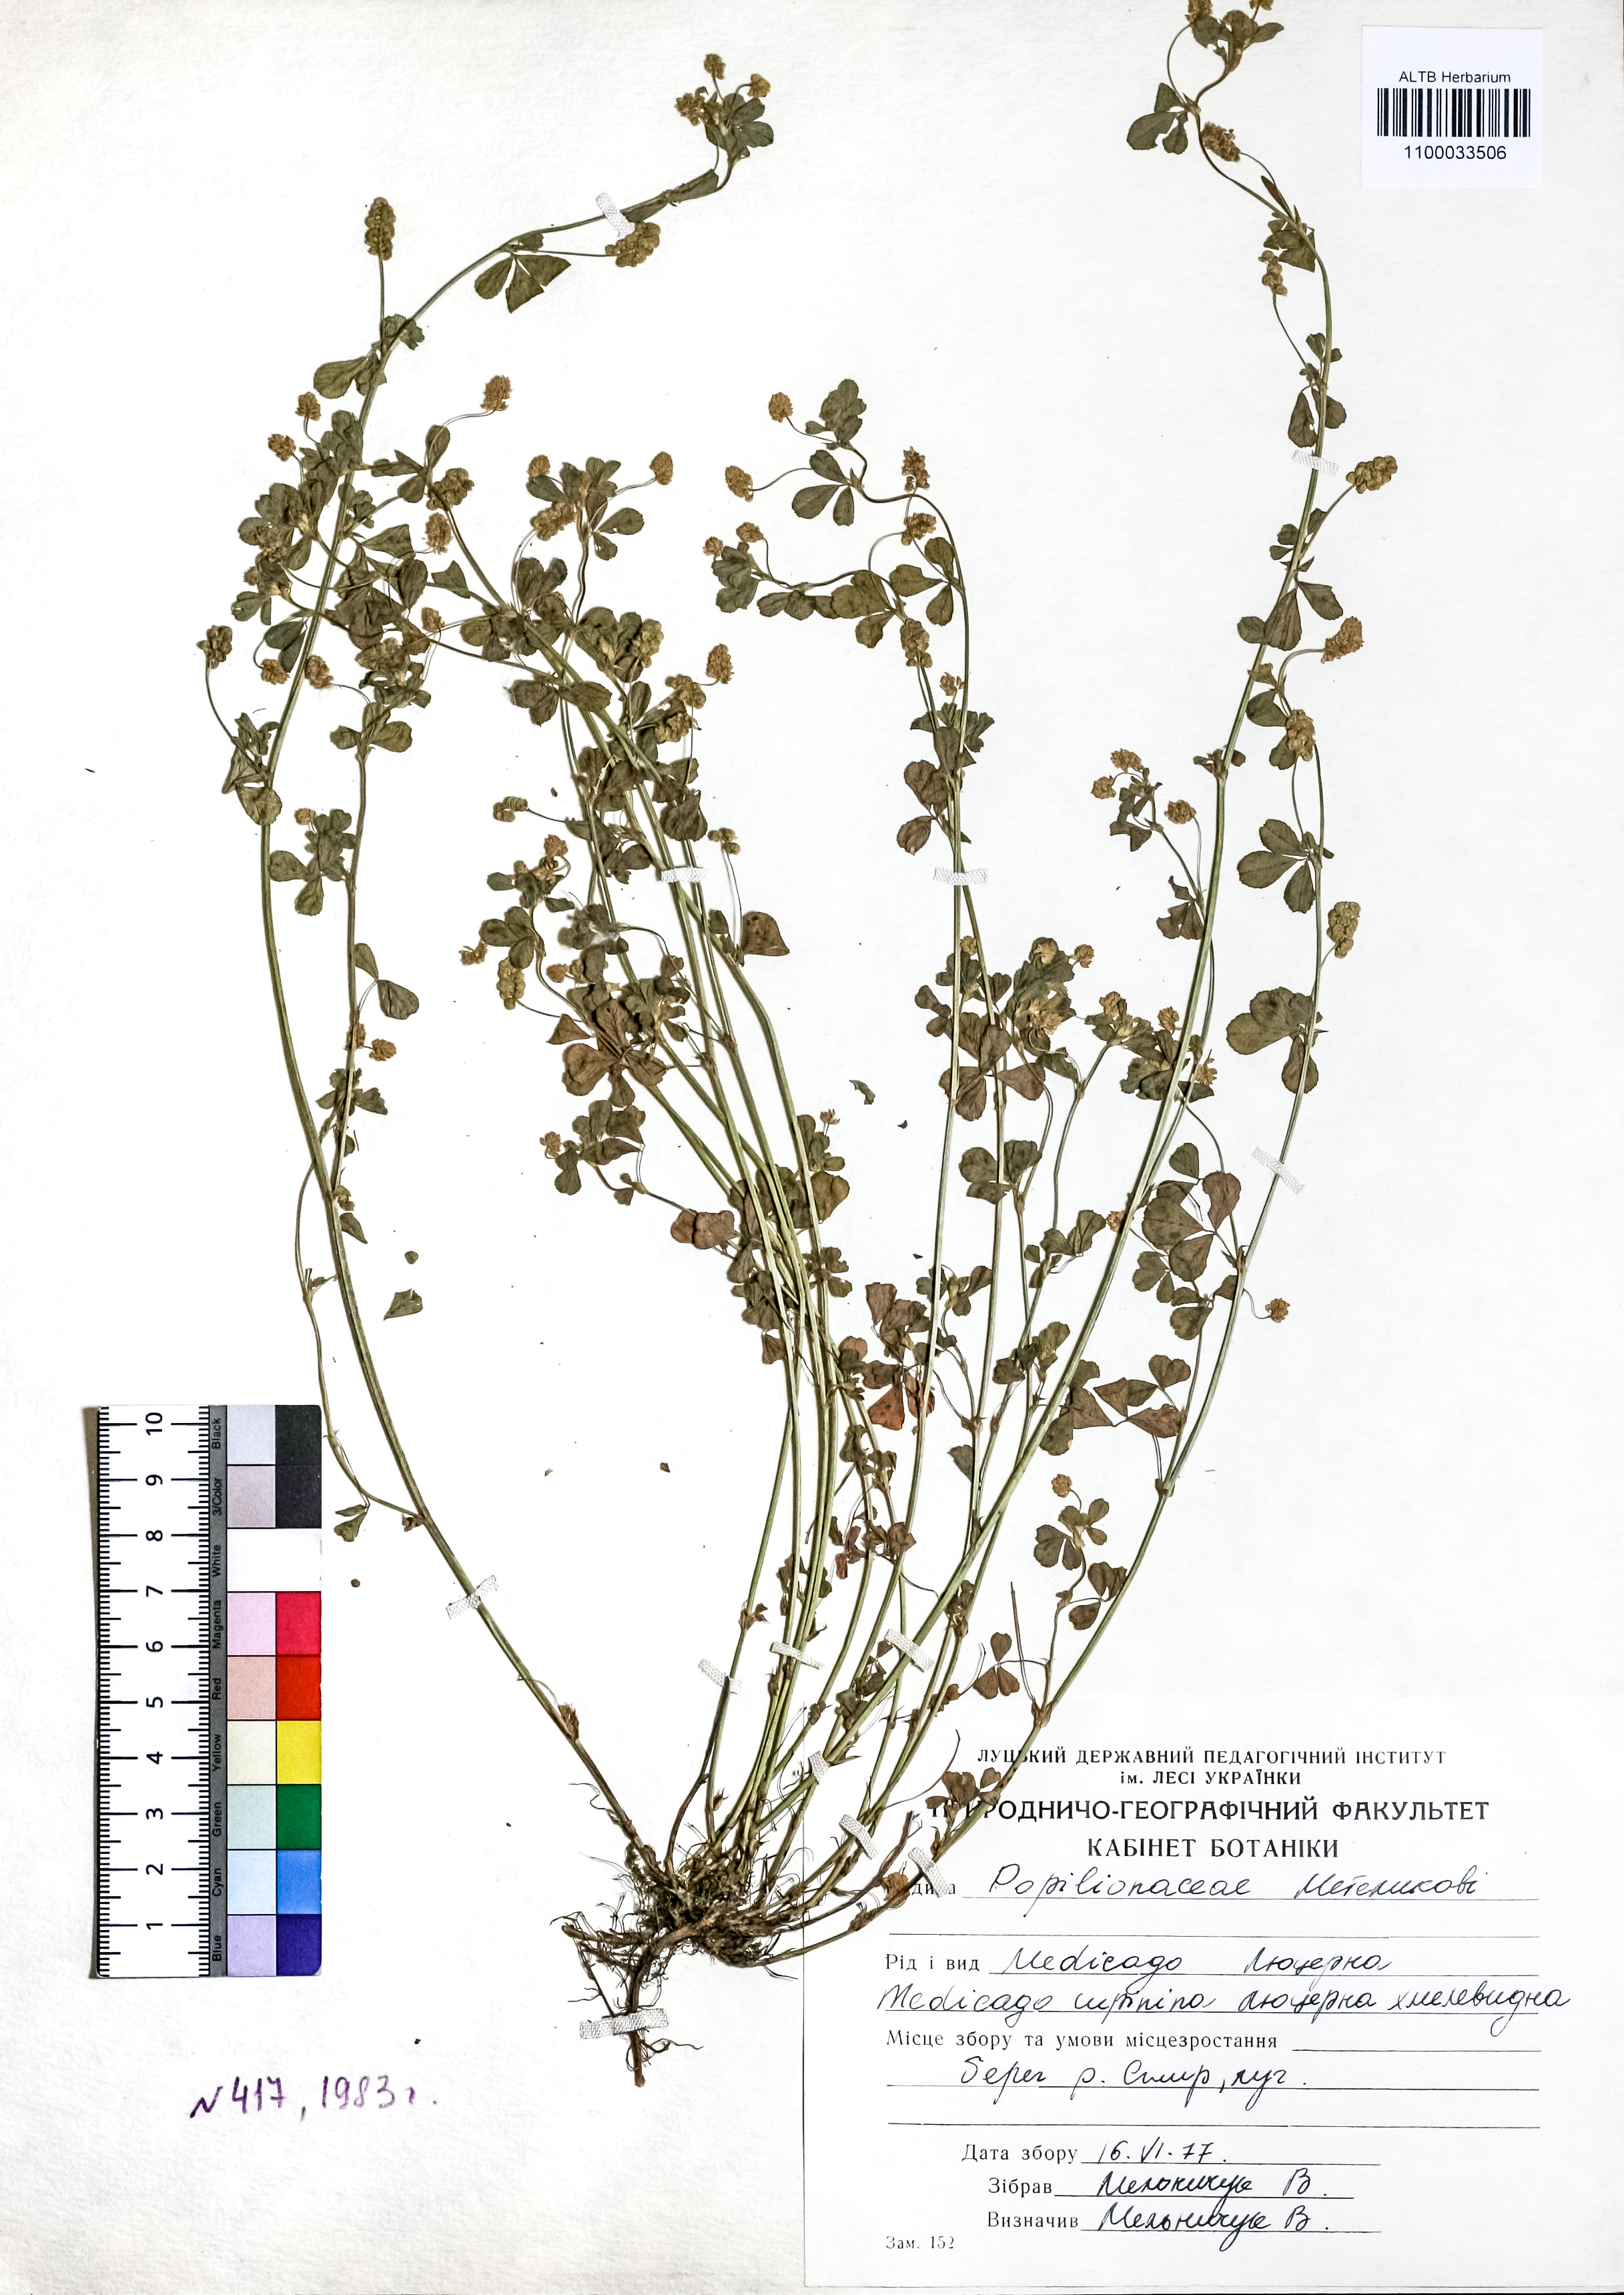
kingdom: Plantae
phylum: Tracheophyta
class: Magnoliopsida
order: Fabales
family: Fabaceae
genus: Medicago
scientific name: Medicago lupulina
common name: Black medick
